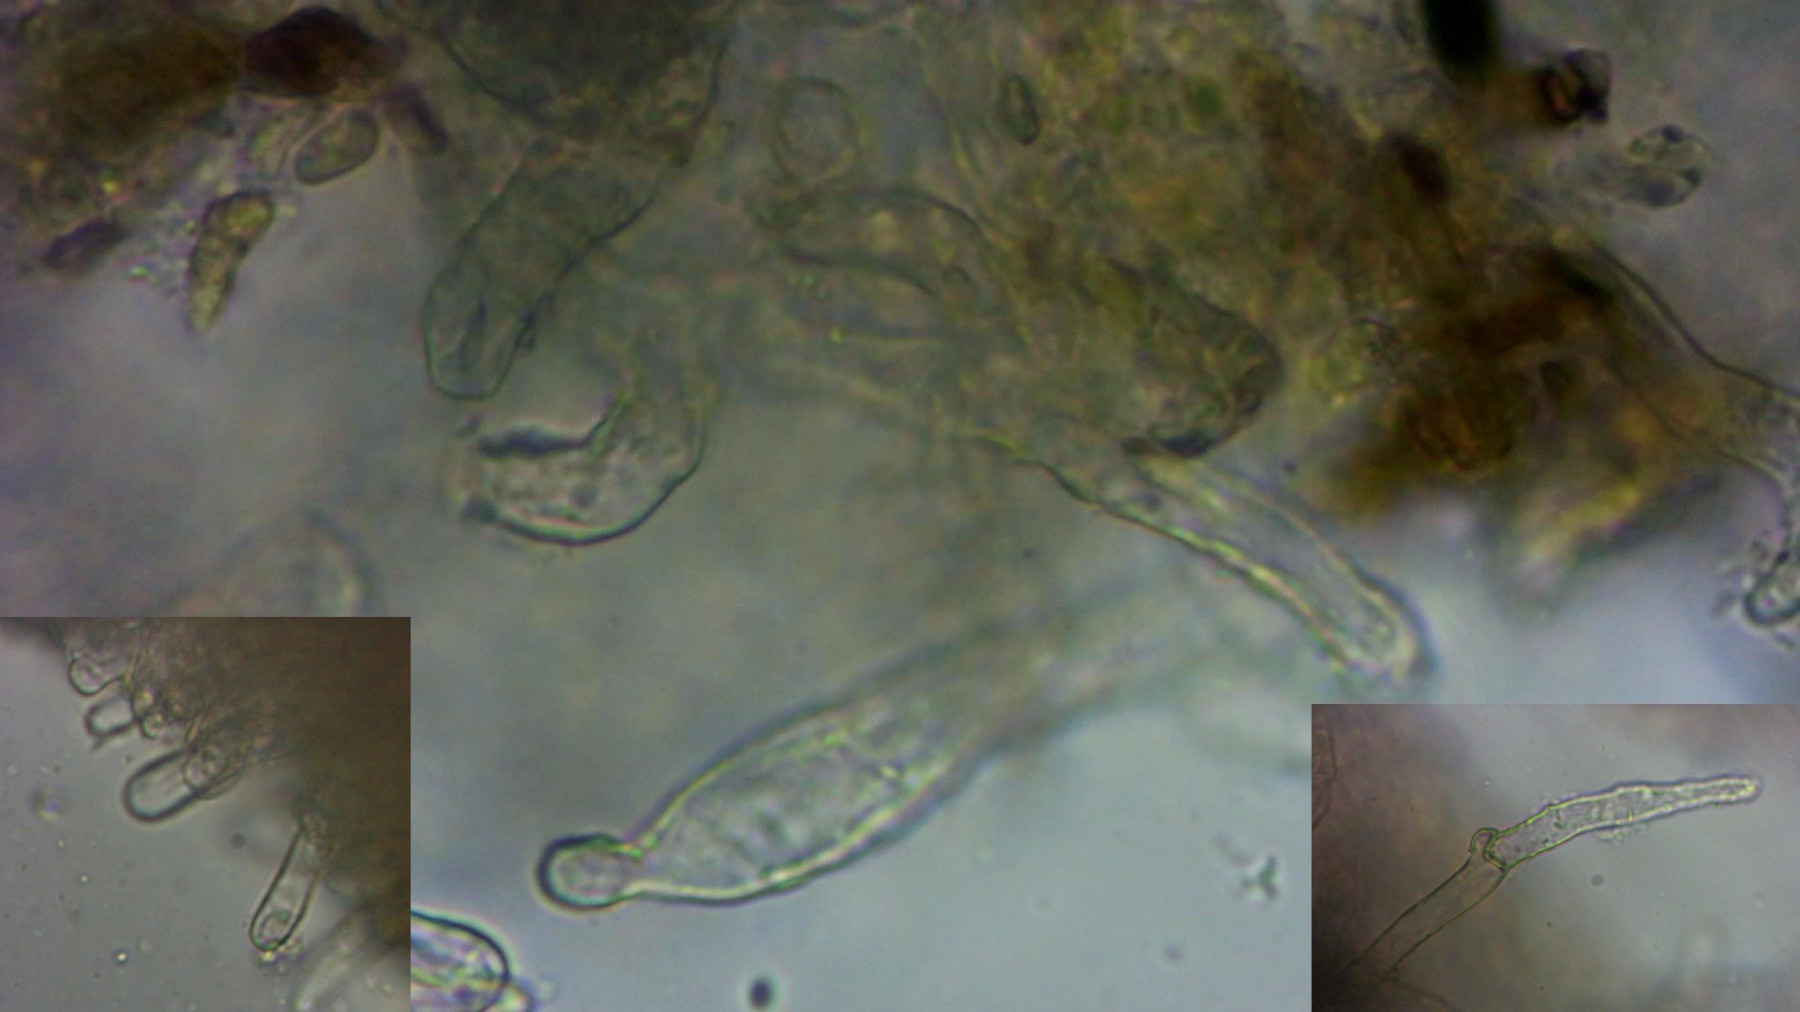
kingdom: Fungi
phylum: Basidiomycota
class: Agaricomycetes
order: Boletales
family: Sclerodermataceae
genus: Scleroderma
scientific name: Scleroderma citrinum
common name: almindelig bruskbold
